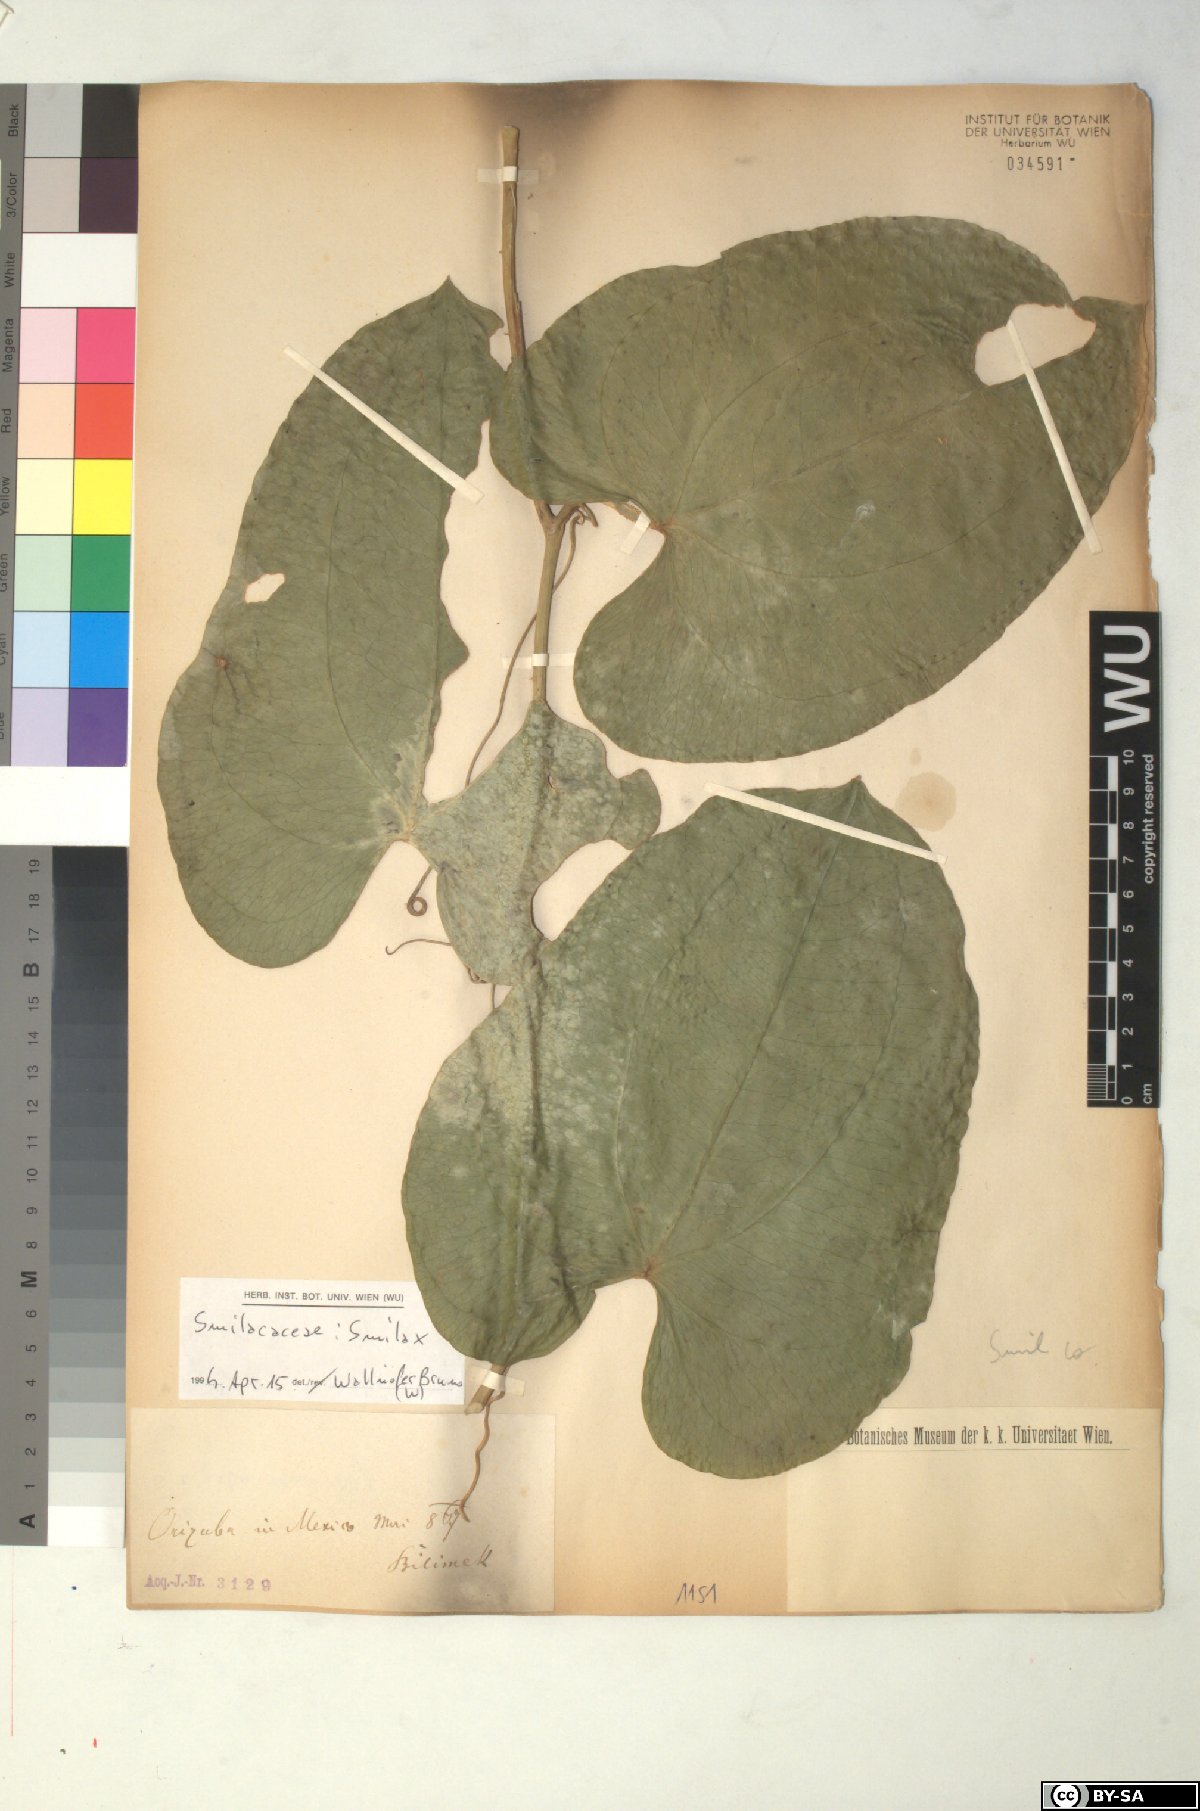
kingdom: Plantae
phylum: Tracheophyta
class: Liliopsida
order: Liliales
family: Smilacaceae
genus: Smilax
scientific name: Smilax
